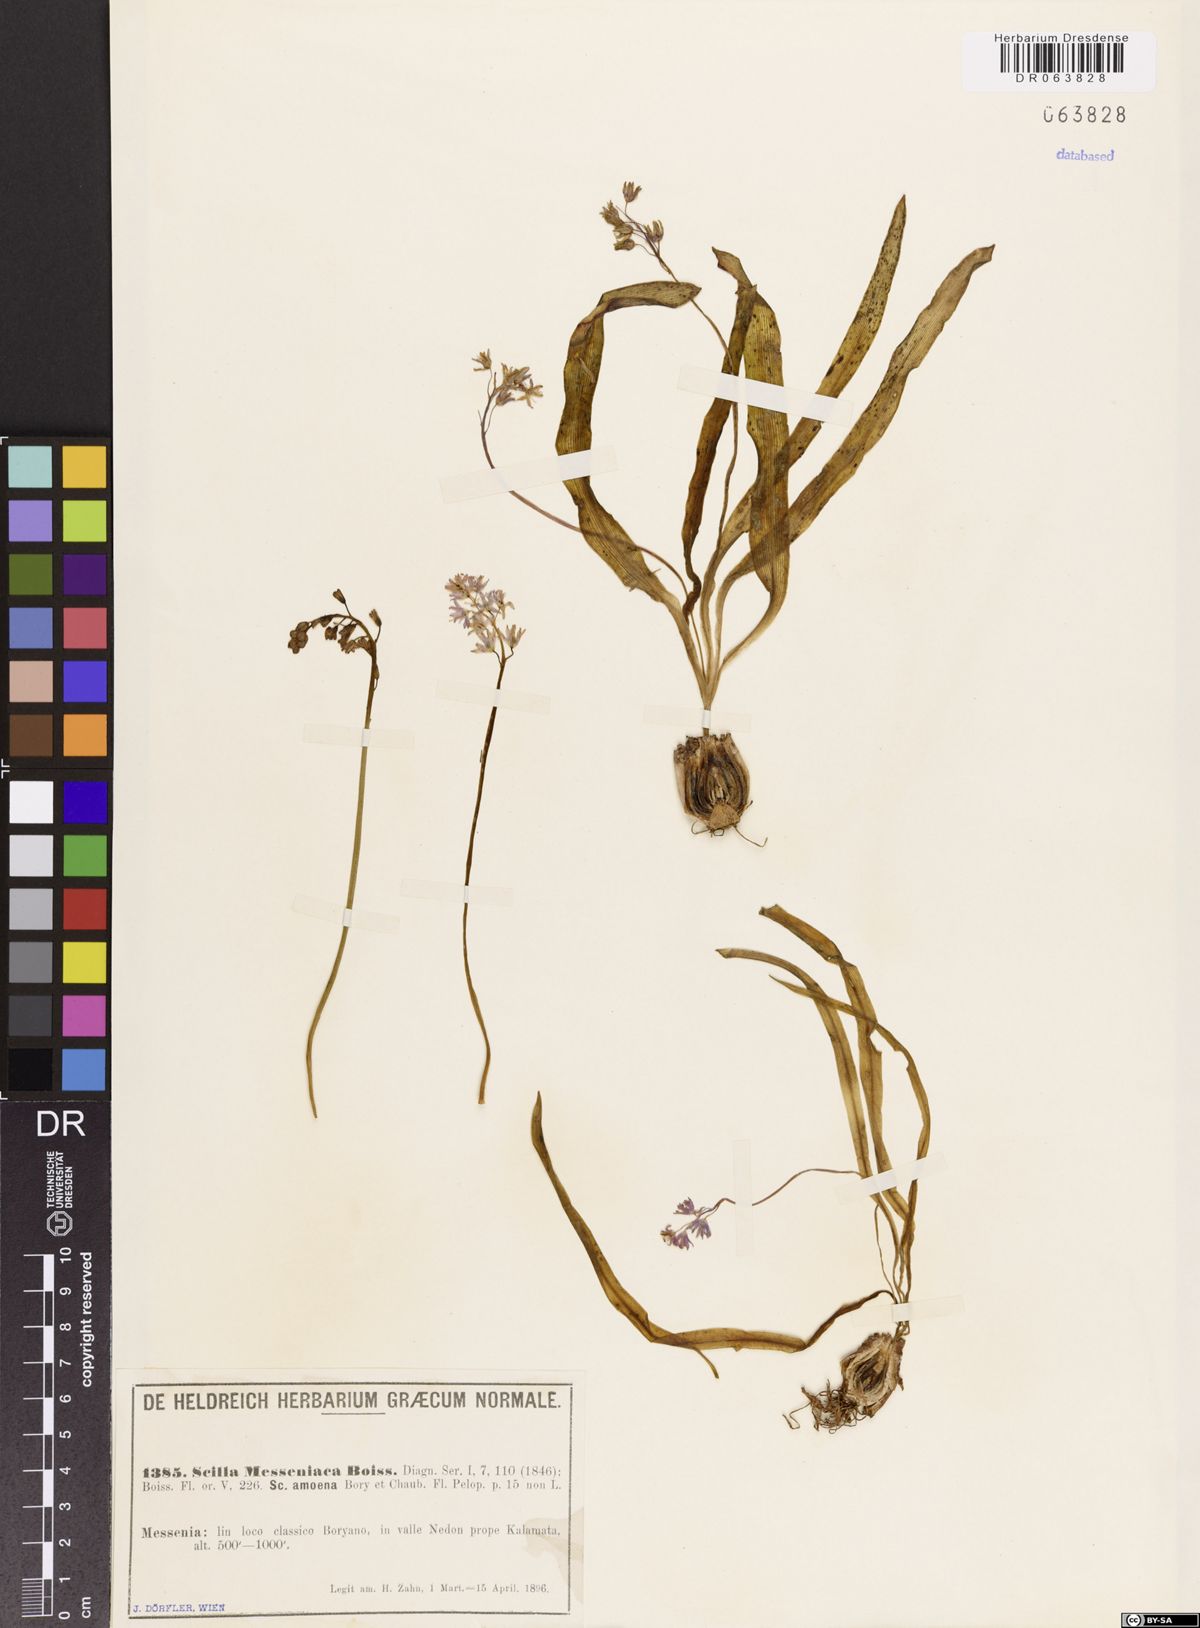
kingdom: Plantae
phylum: Tracheophyta
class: Liliopsida
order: Asparagales
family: Asparagaceae
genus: Scilla
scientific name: Scilla messeniaca
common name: Greek squill
